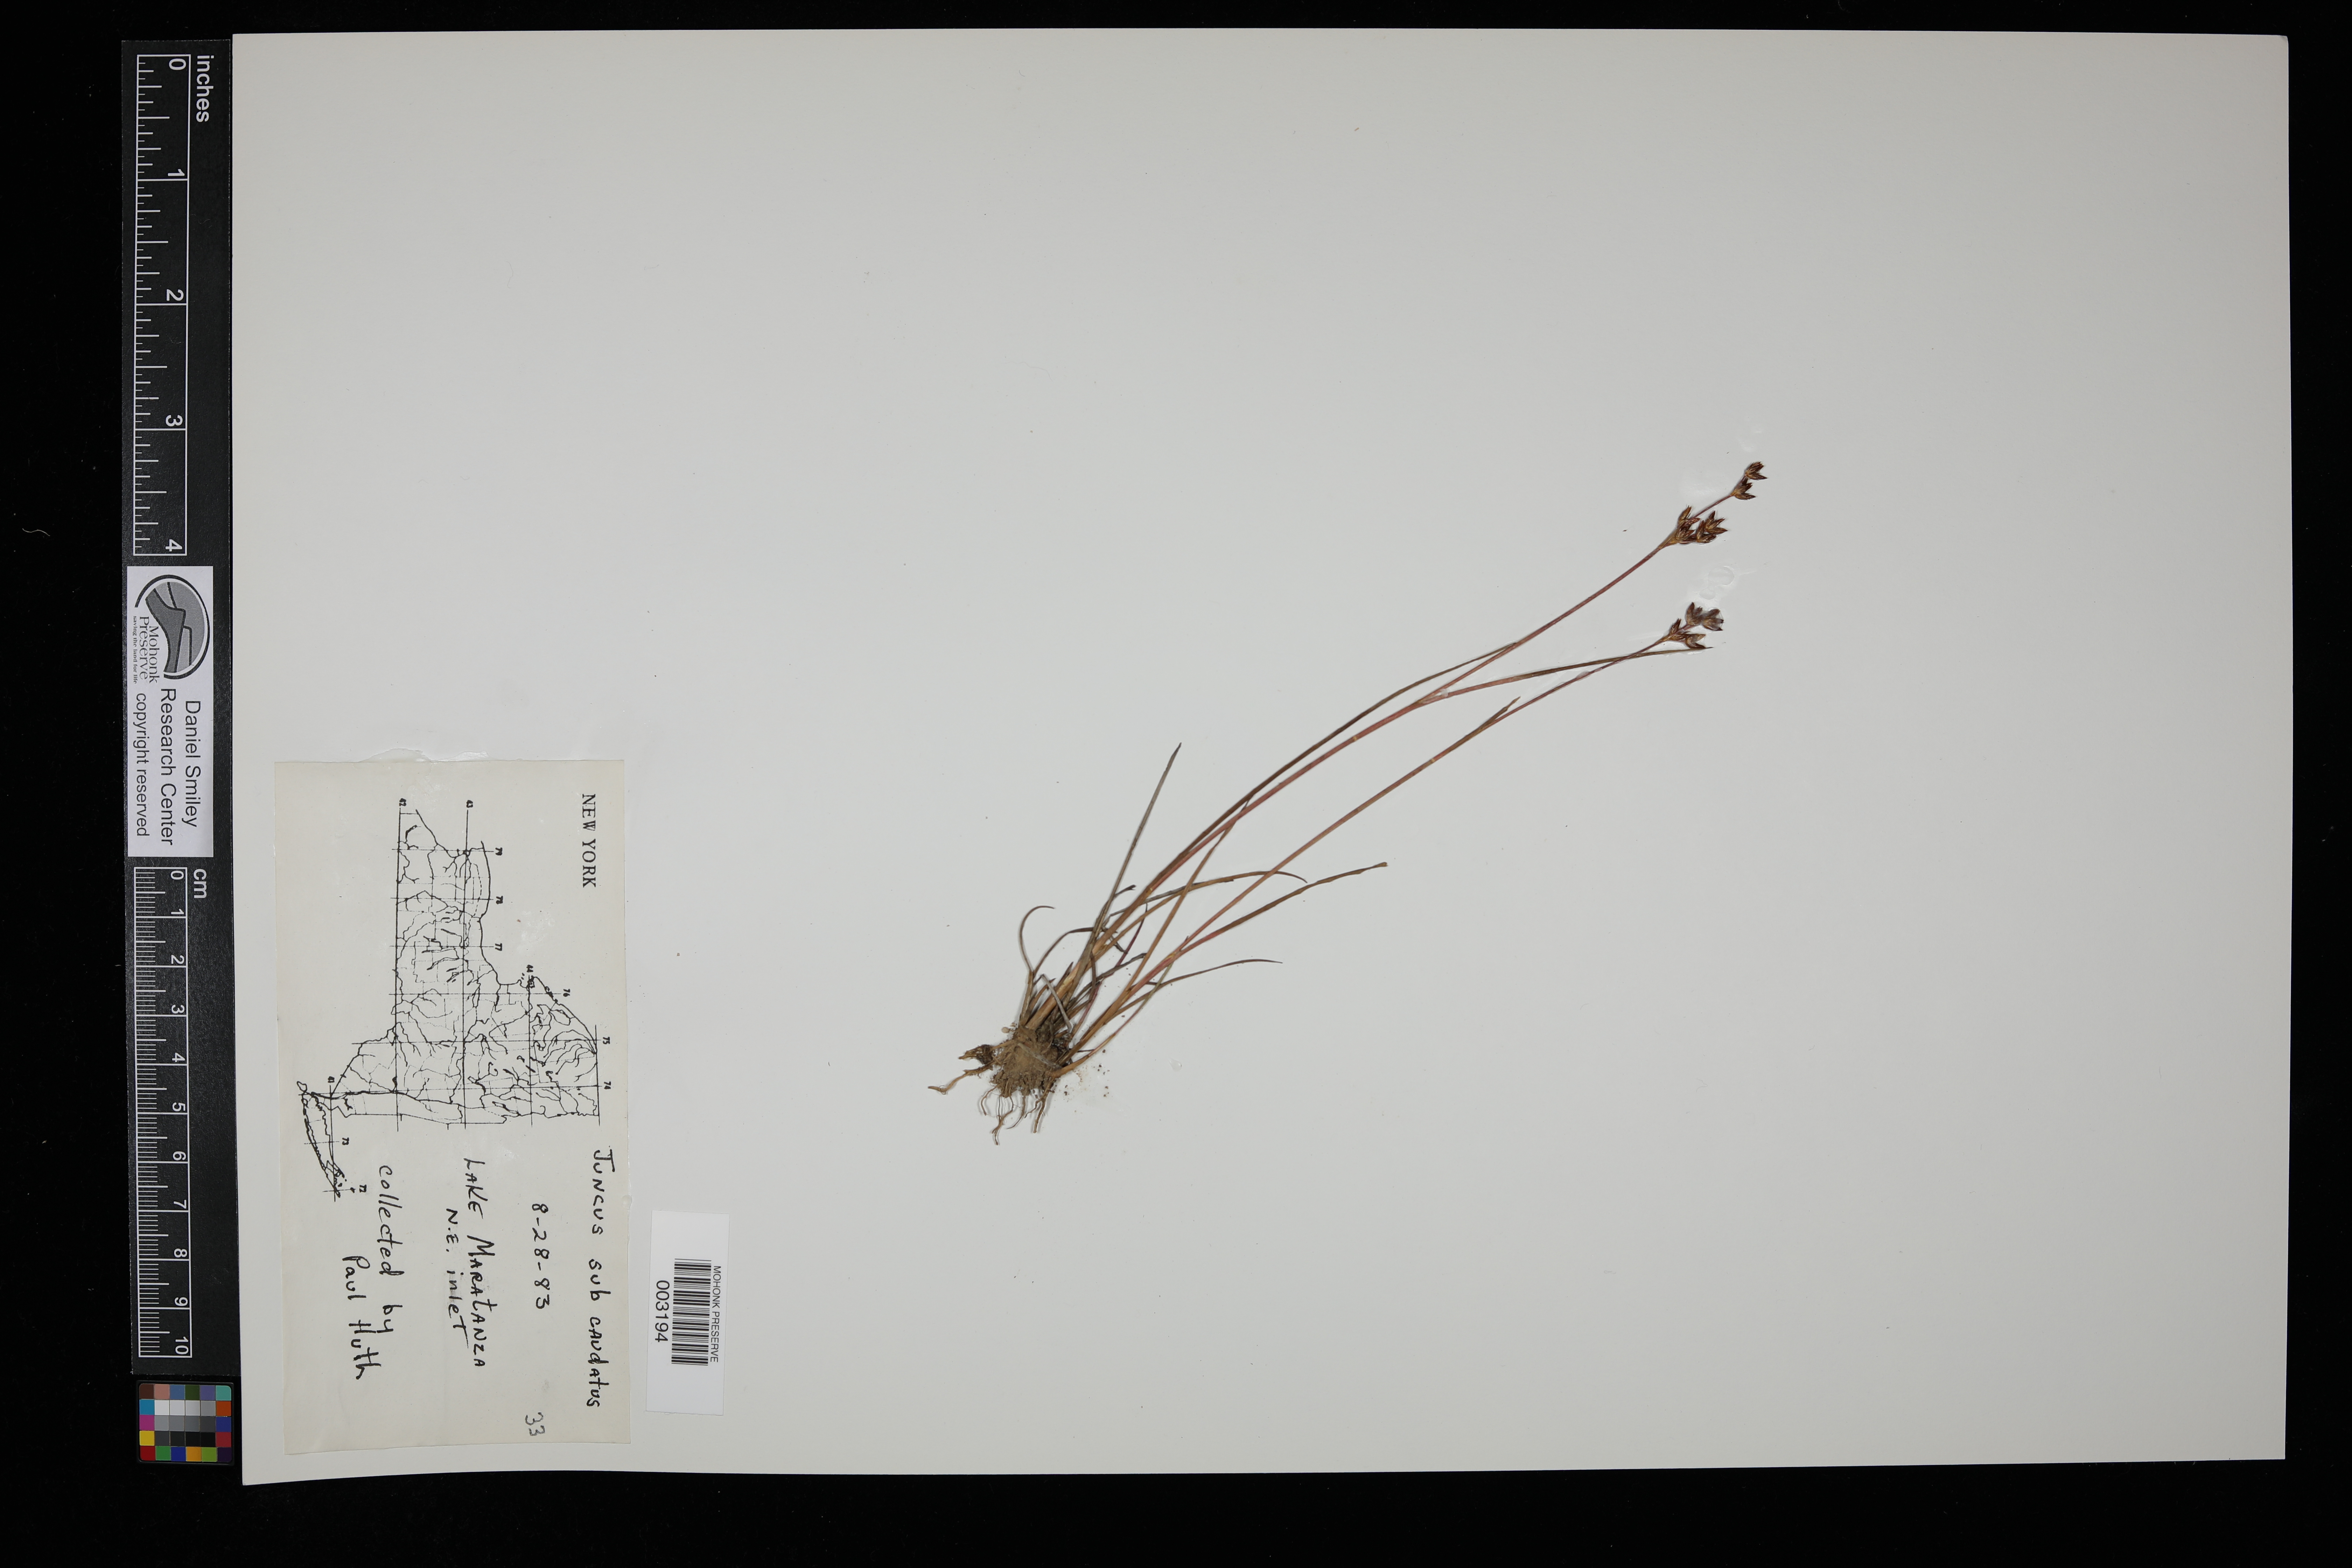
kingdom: Plantae
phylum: Tracheophyta
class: Liliopsida
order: Poales
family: Juncaceae
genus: Juncus
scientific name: Juncus subcaudatus
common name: Engelmann's rush
